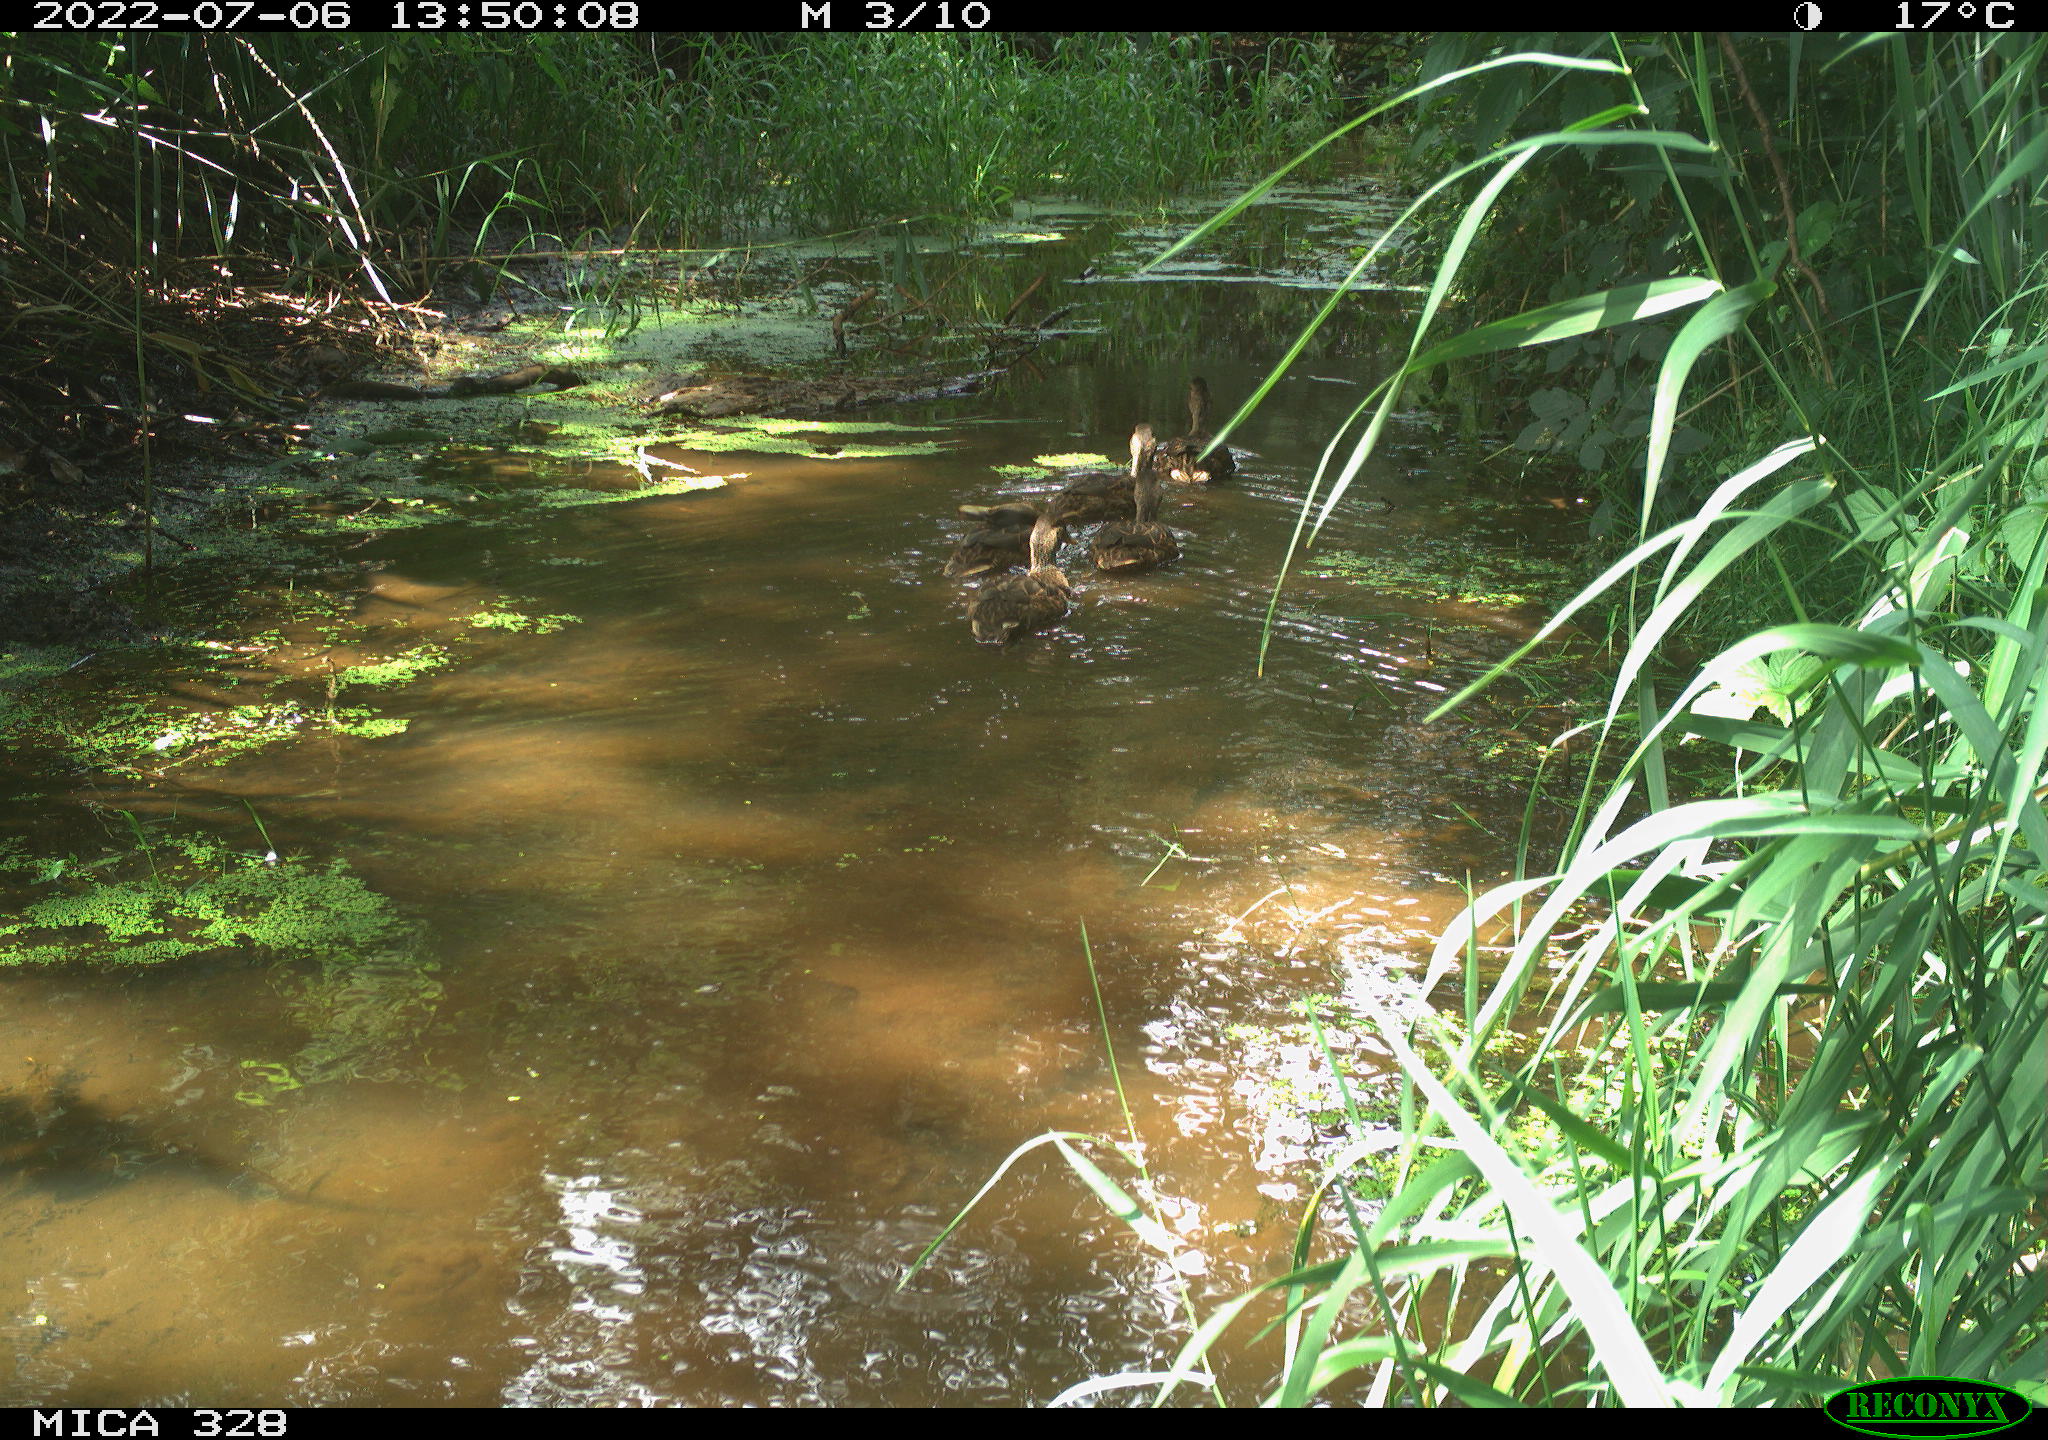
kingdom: Animalia
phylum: Chordata
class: Aves
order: Anseriformes
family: Anatidae
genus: Anas
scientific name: Anas platyrhynchos
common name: Mallard
